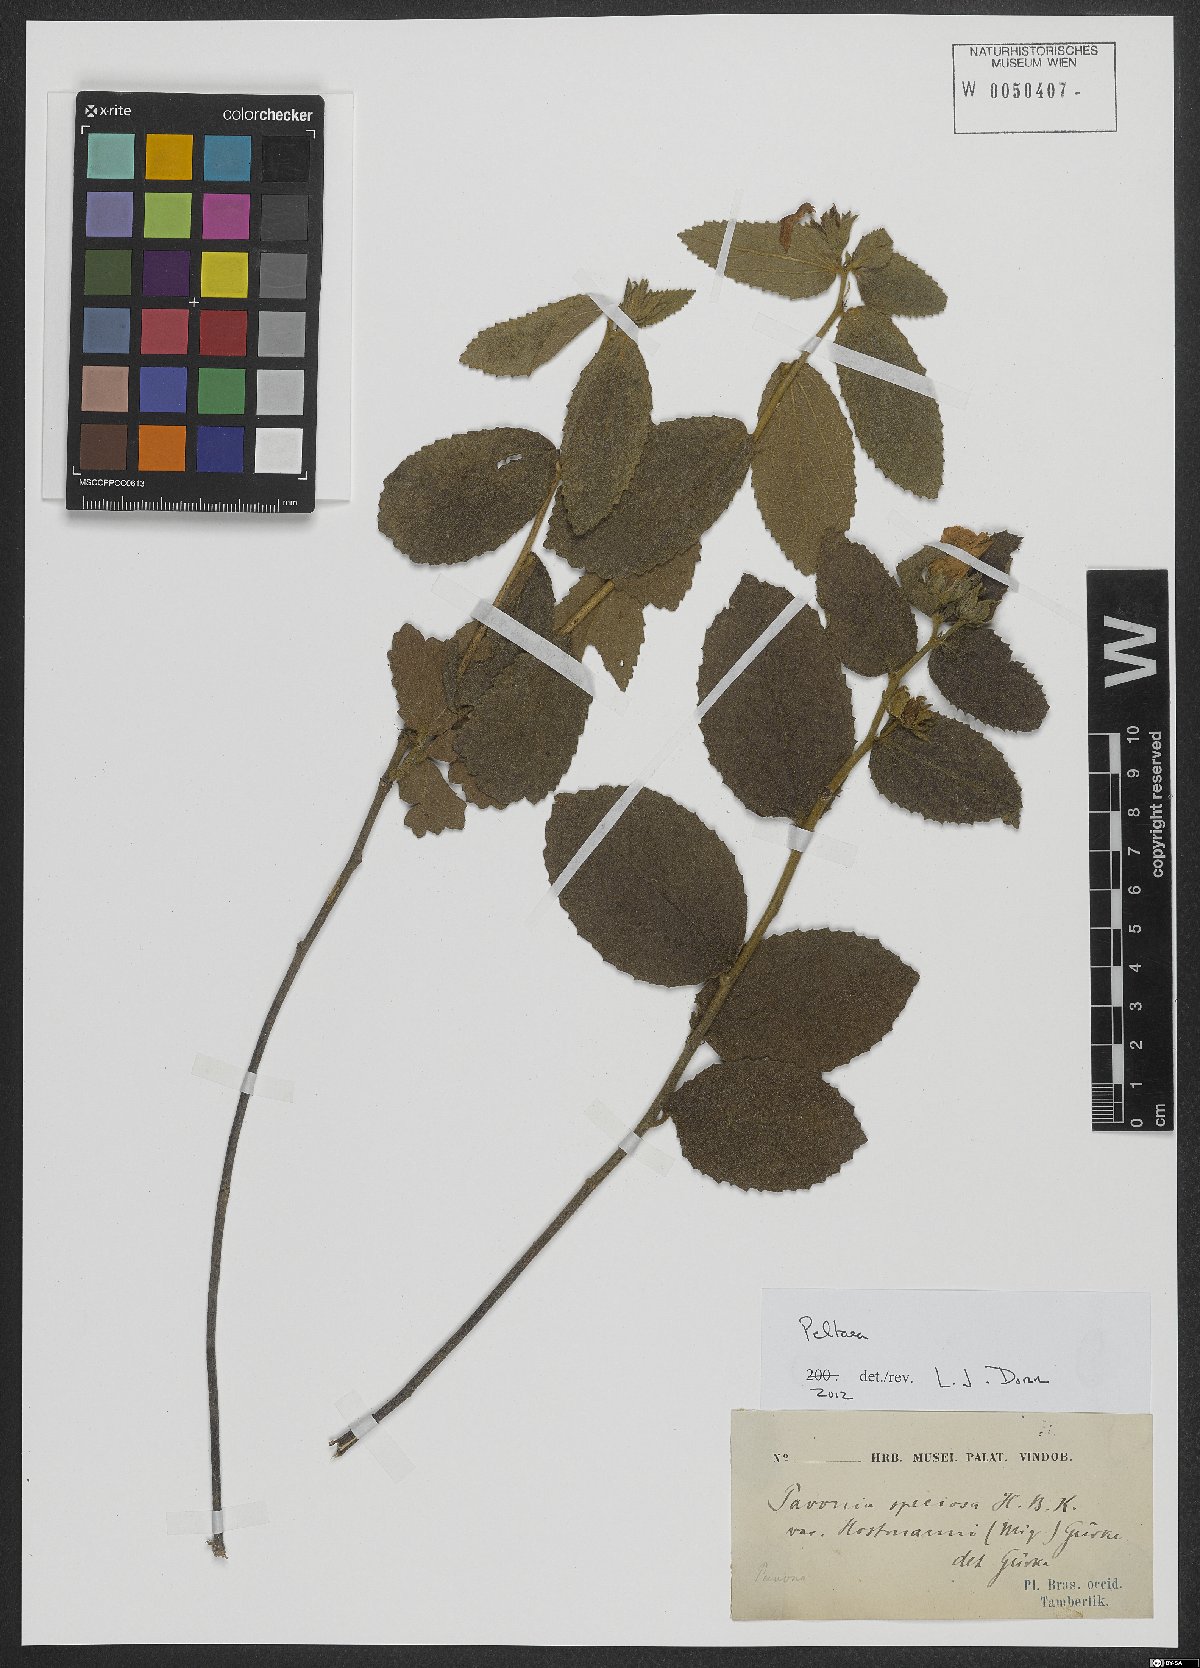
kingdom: Plantae
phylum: Tracheophyta
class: Magnoliopsida
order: Malvales
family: Malvaceae
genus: Peltaea
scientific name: Peltaea
